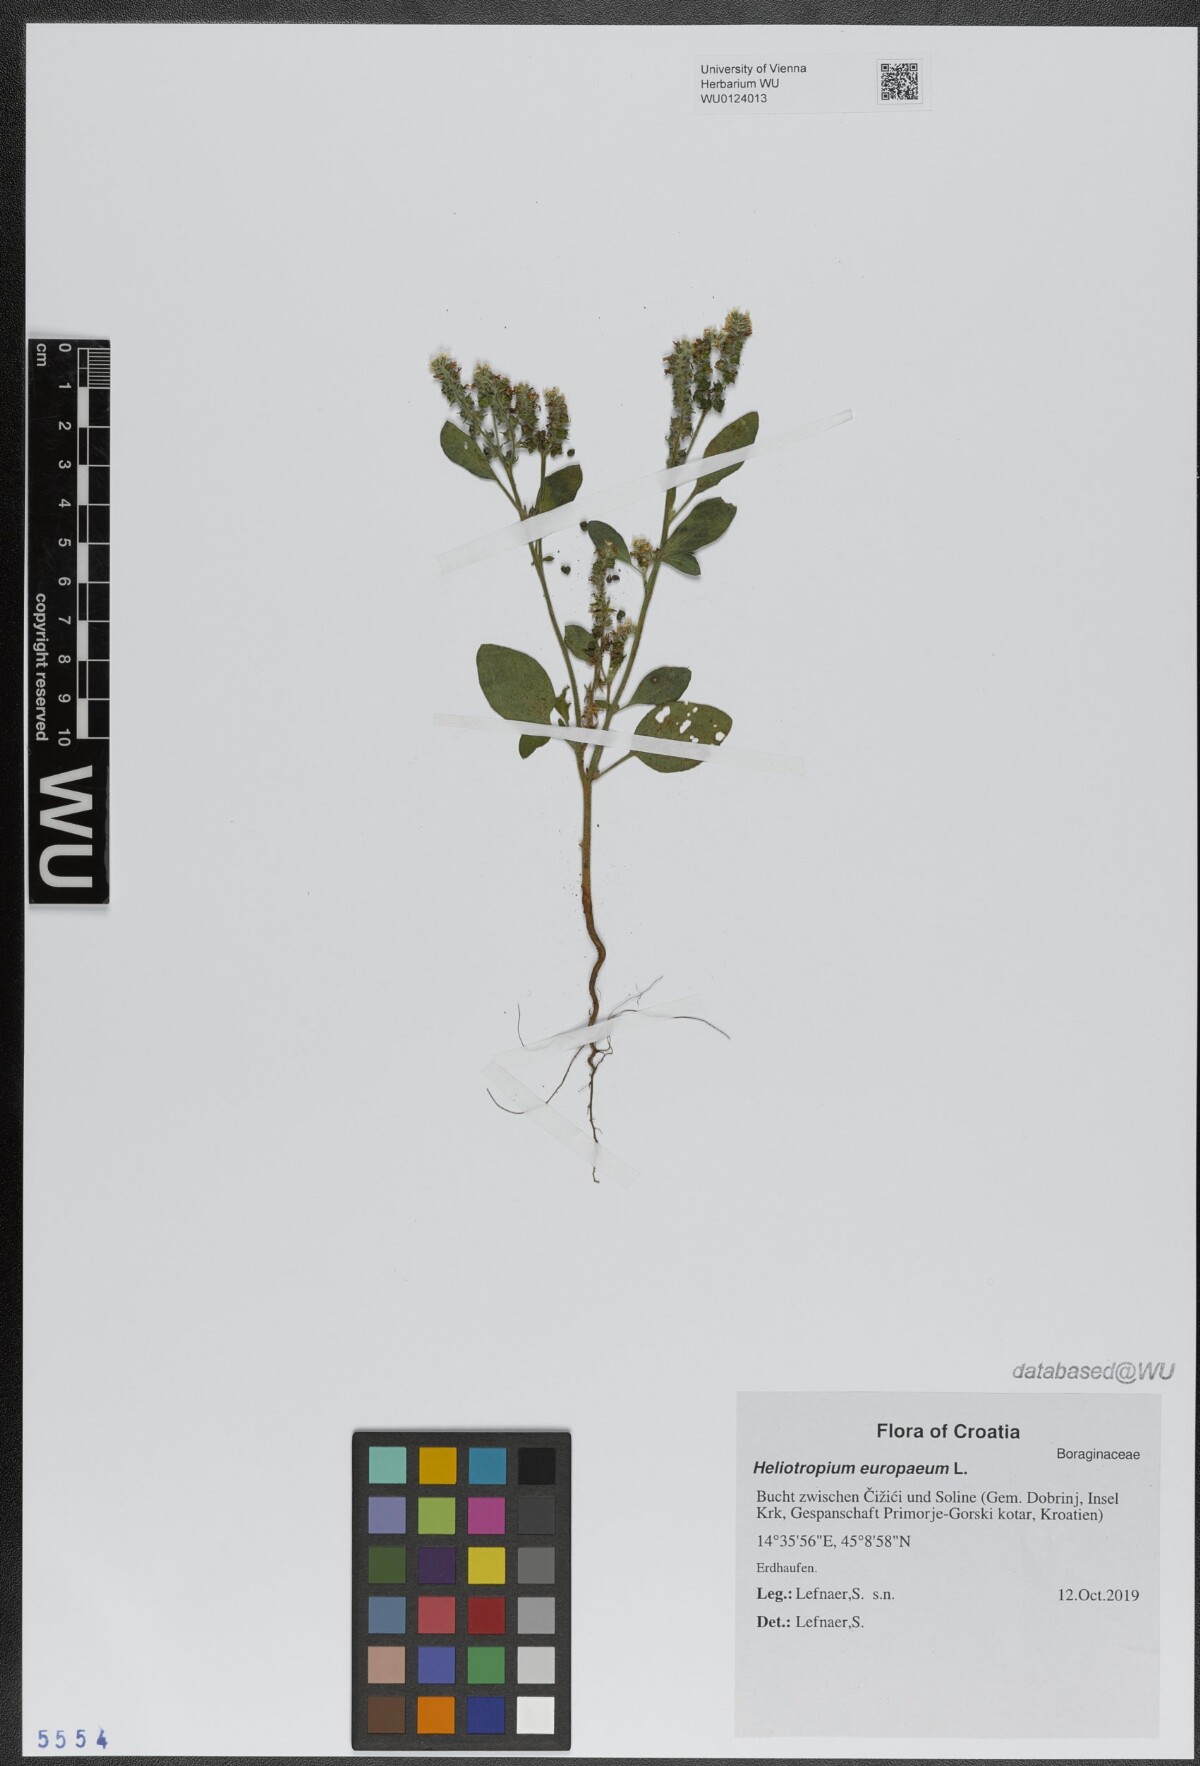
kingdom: Plantae
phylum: Tracheophyta
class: Magnoliopsida
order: Boraginales
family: Heliotropiaceae
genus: Heliotropium
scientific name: Heliotropium europaeum
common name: European heliotrope
